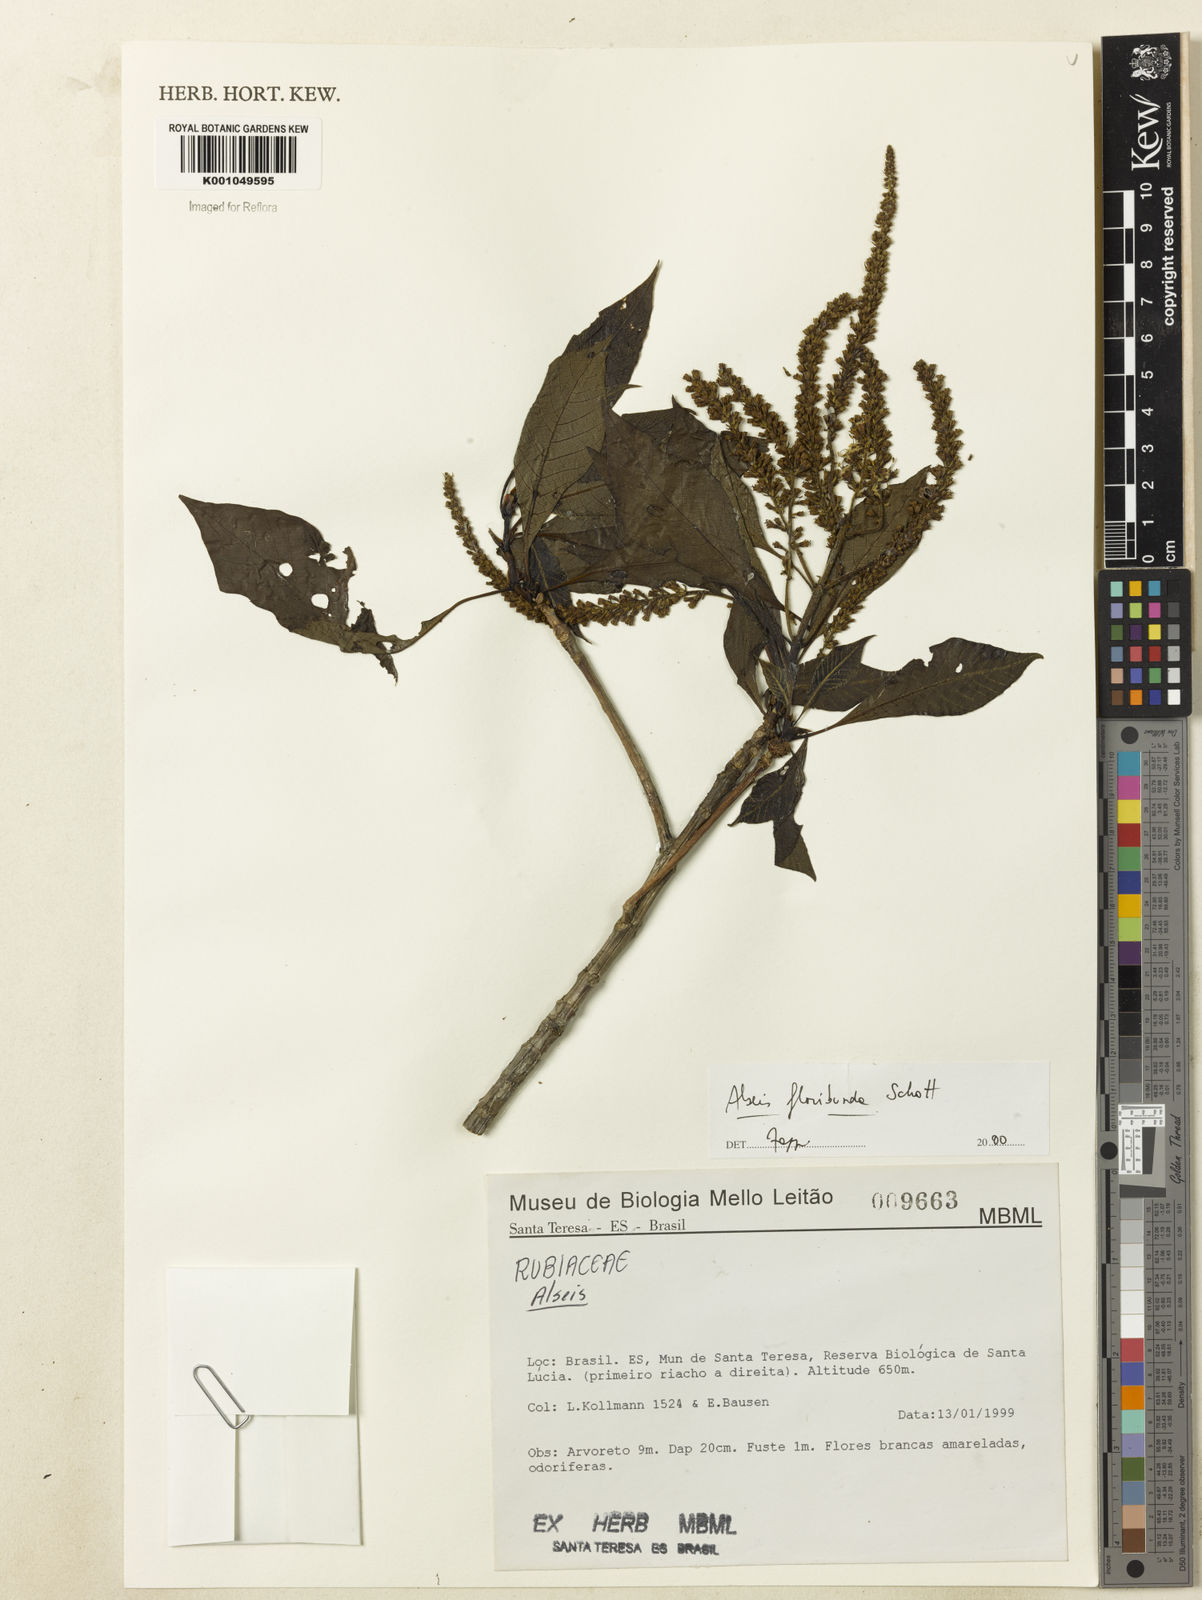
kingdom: Plantae
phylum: Tracheophyta
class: Magnoliopsida
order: Gentianales
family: Rubiaceae
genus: Alseis
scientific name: Alseis floribunda
